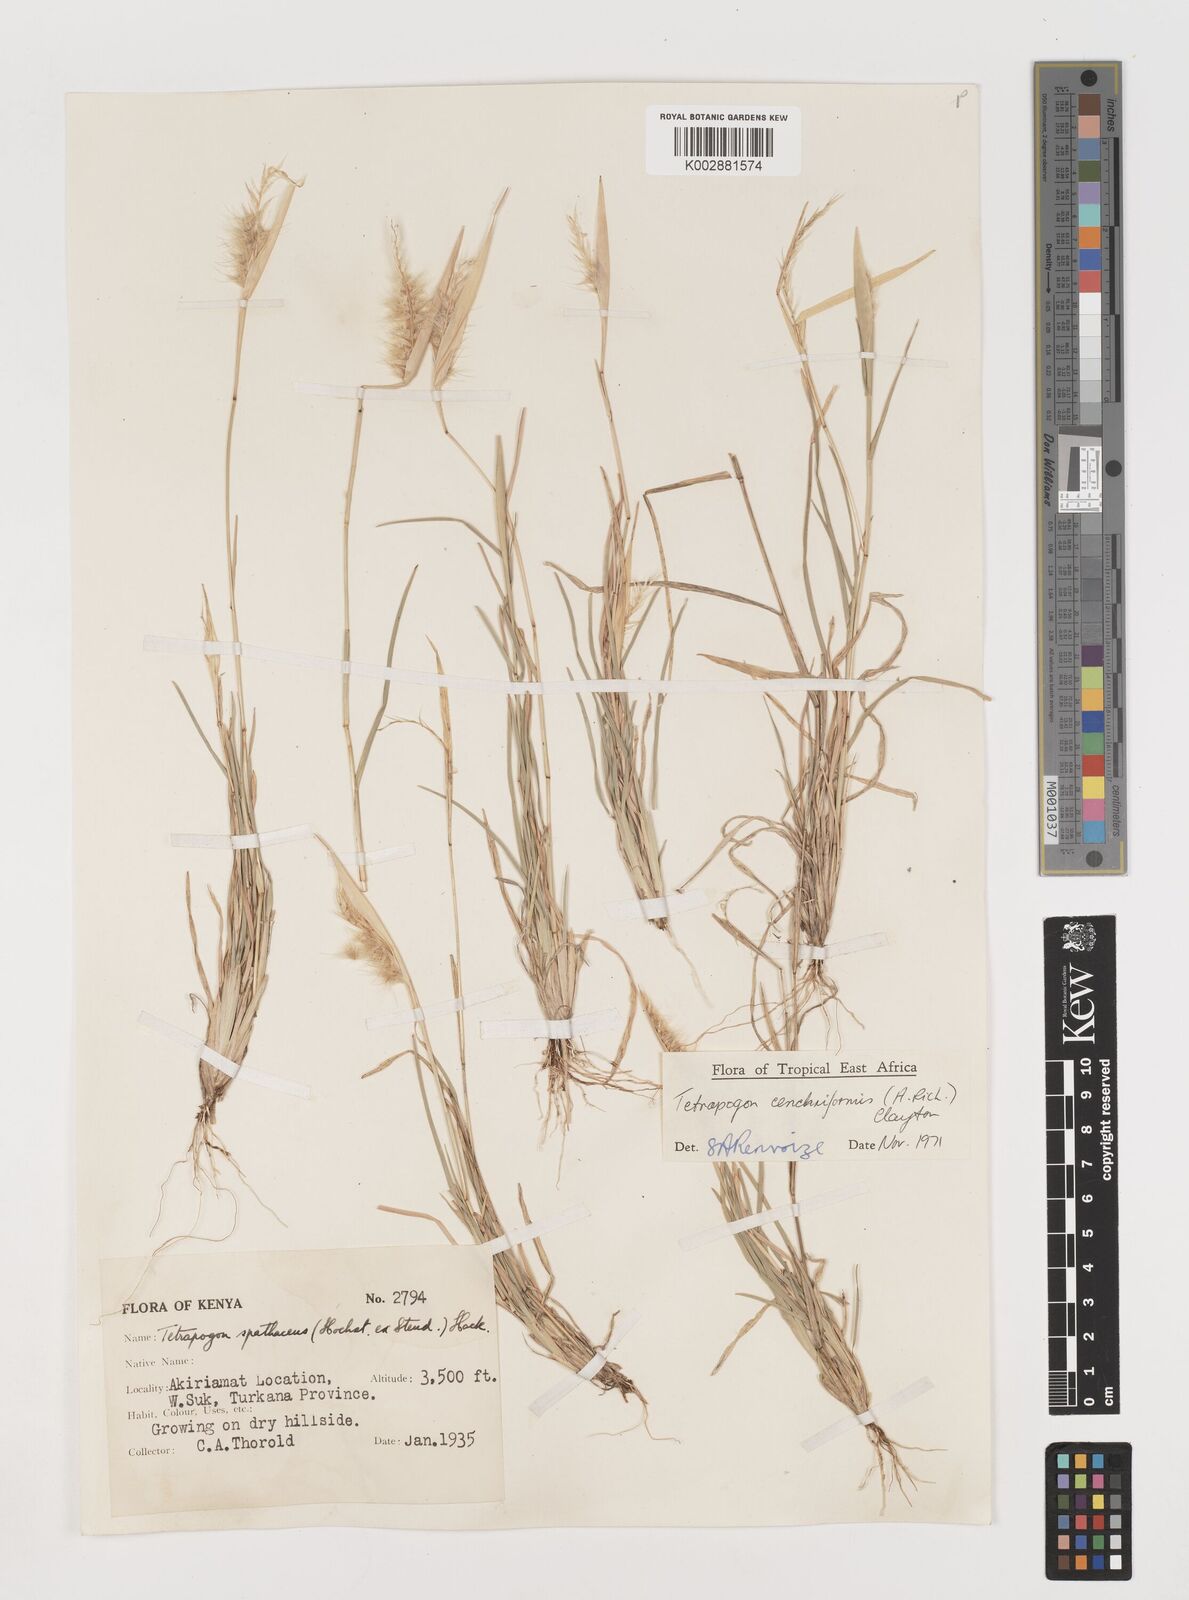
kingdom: Plantae
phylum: Tracheophyta
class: Liliopsida
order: Poales
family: Poaceae
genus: Tetrapogon
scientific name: Tetrapogon cenchriformis
